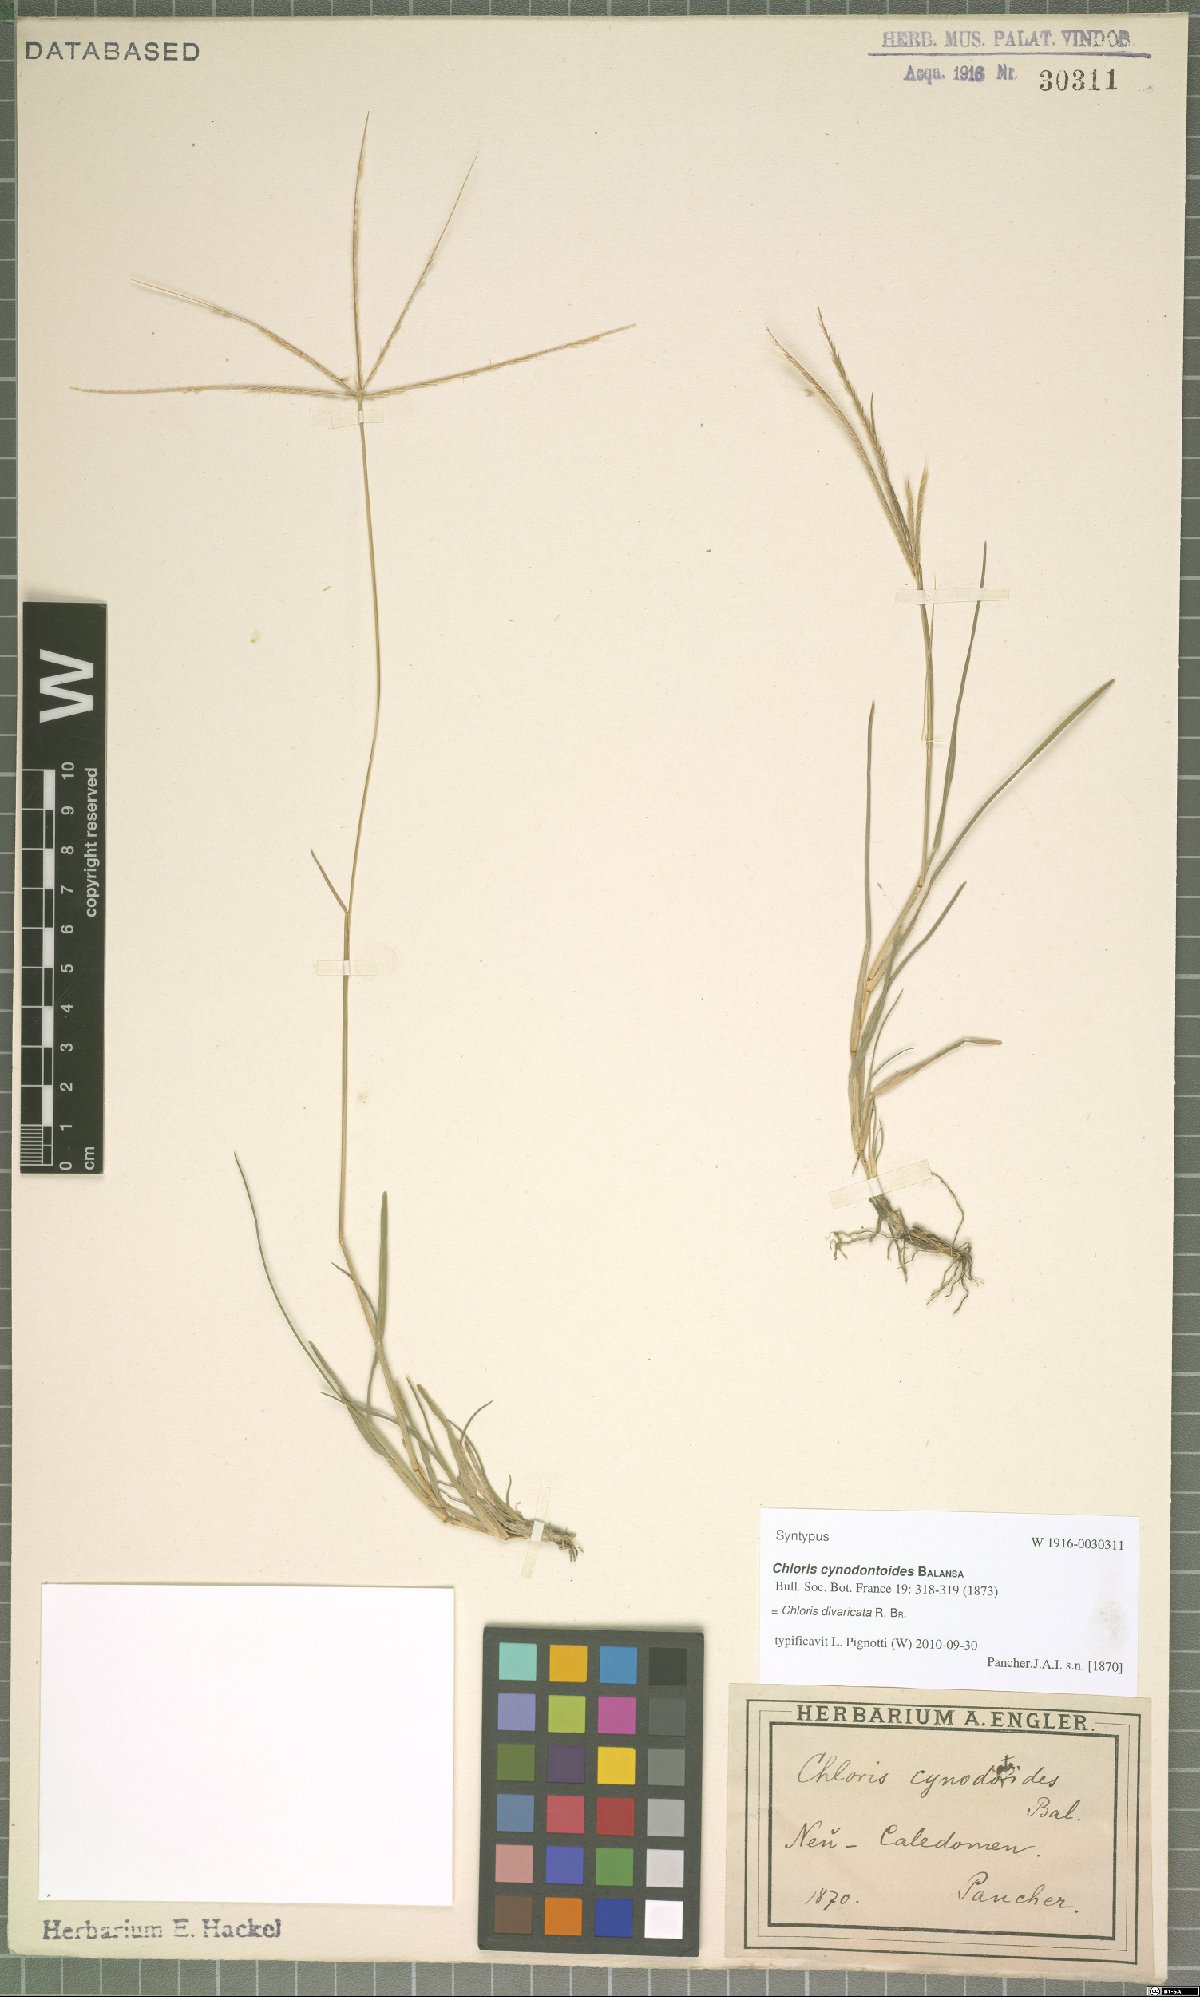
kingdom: Plantae
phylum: Tracheophyta
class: Liliopsida
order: Poales
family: Poaceae
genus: Chloris
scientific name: Chloris divaricata
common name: Spreading windmill grass
